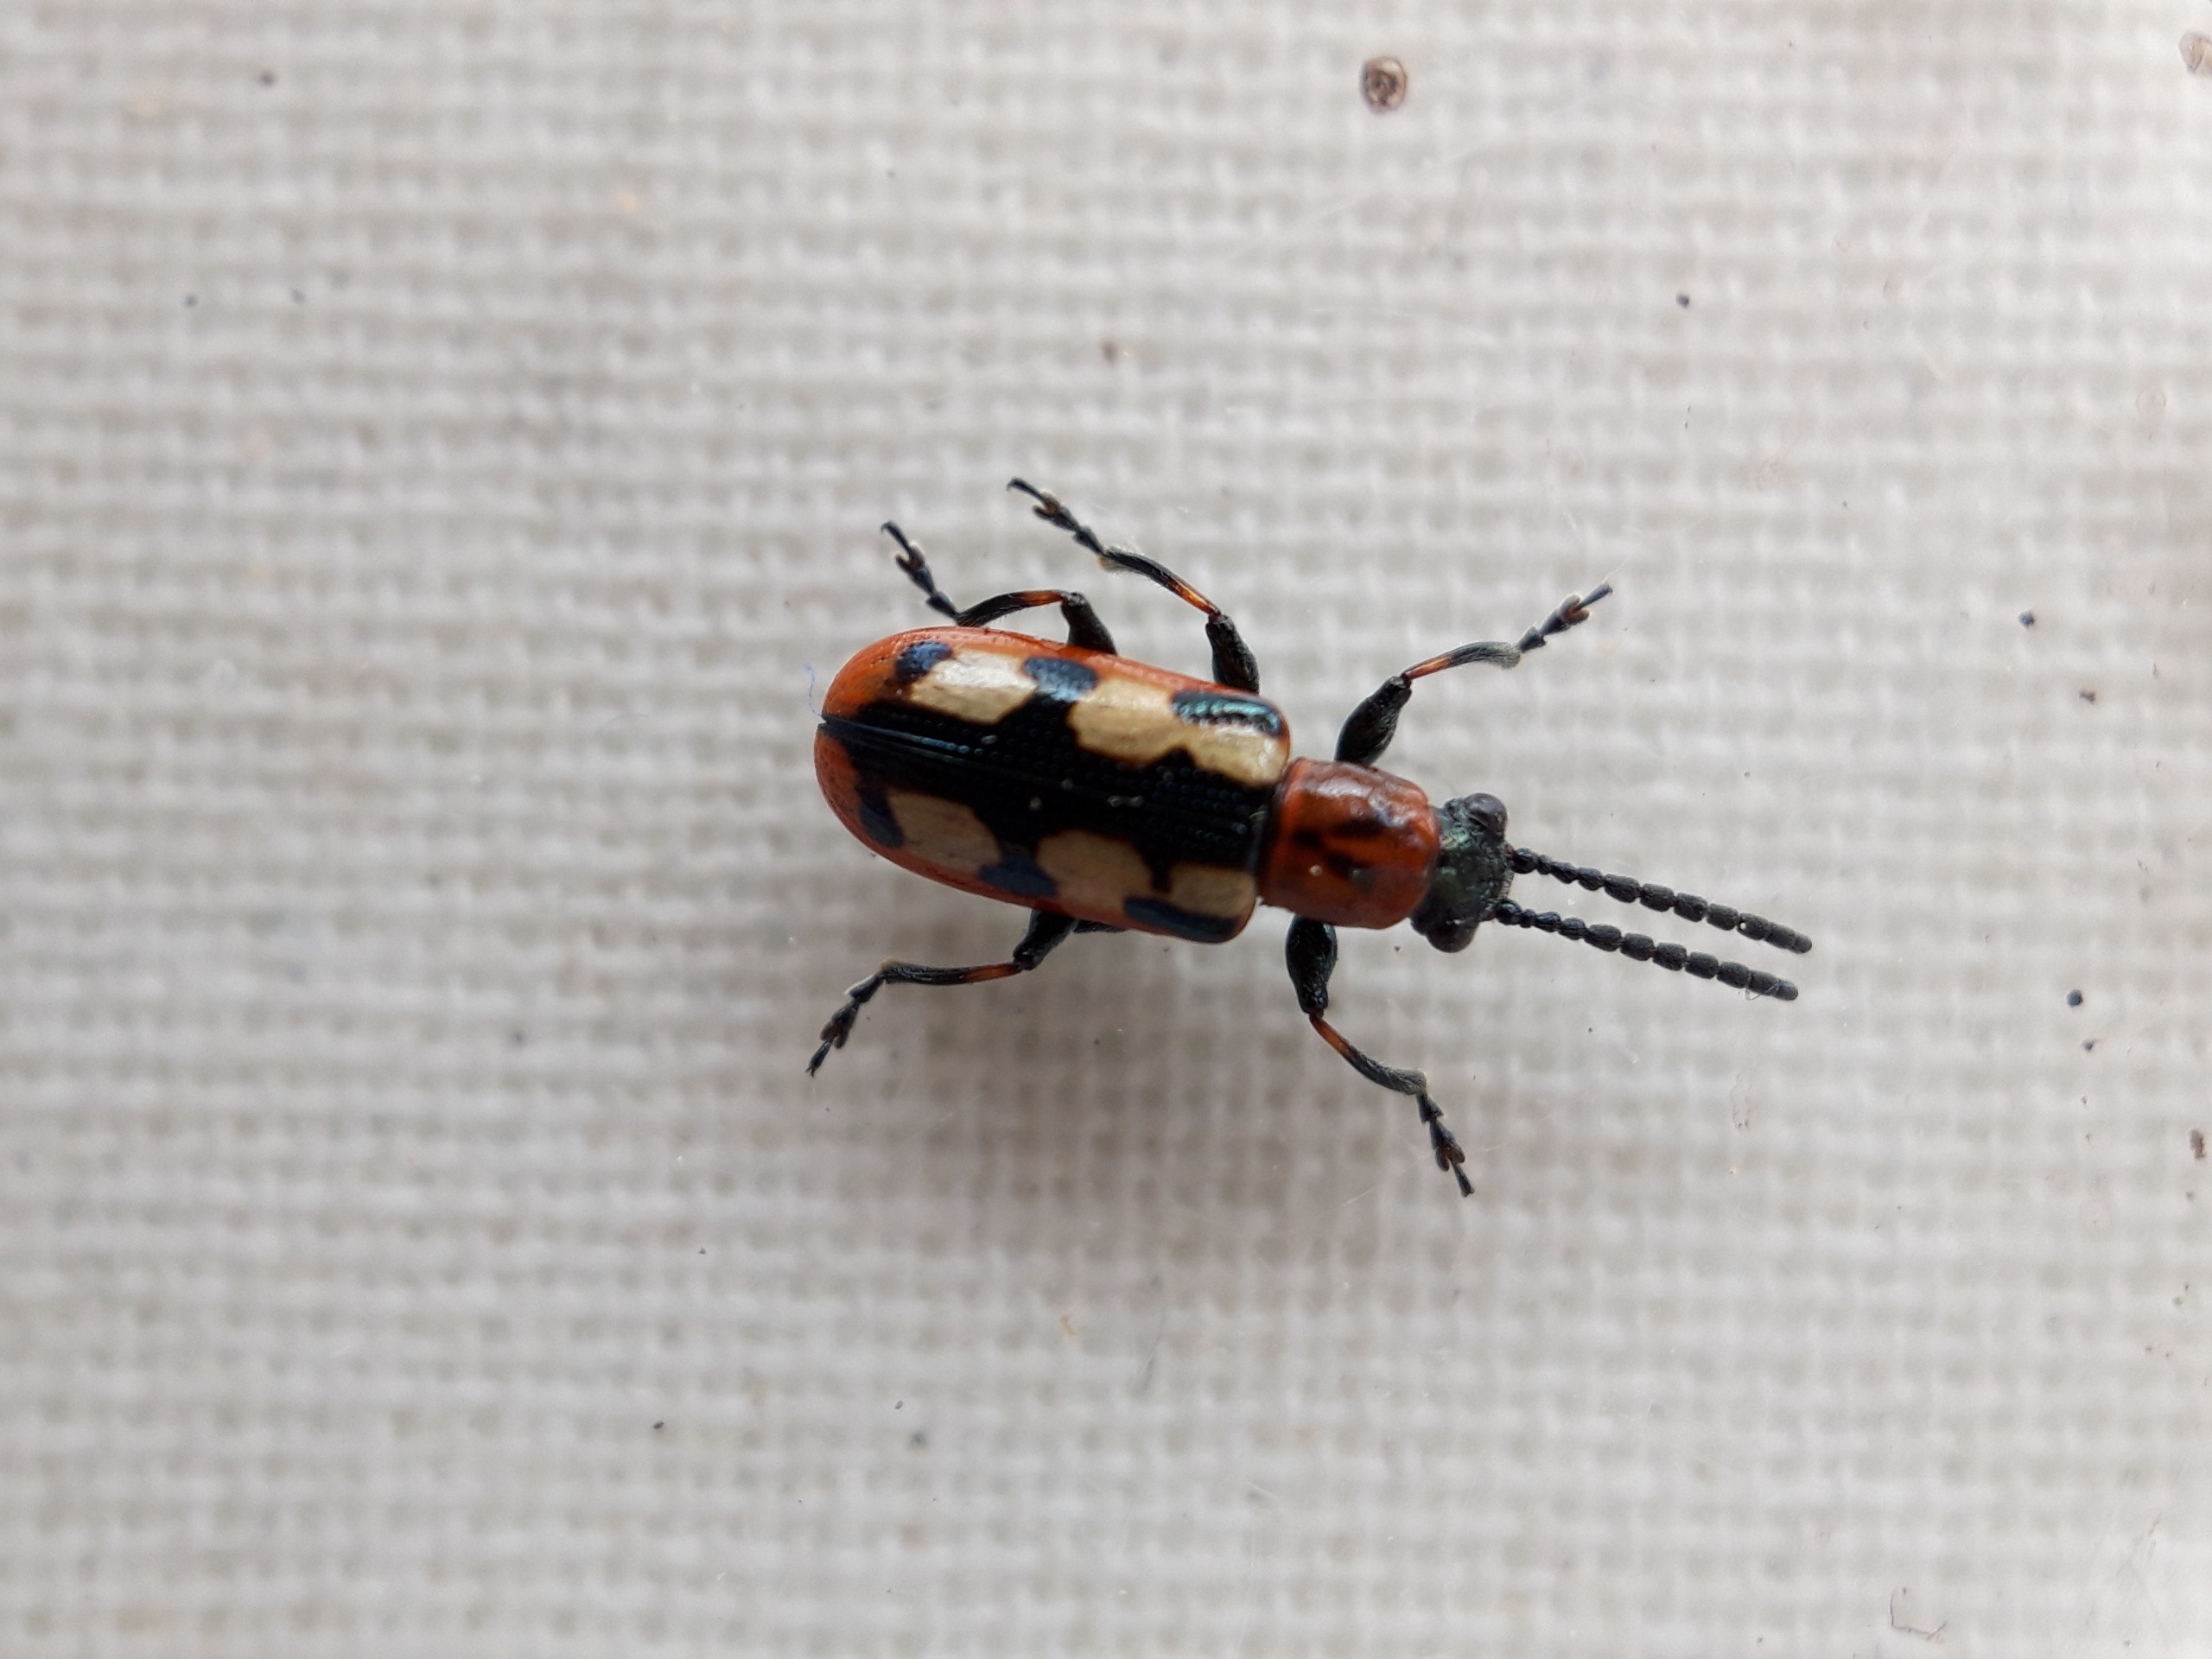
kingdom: Animalia
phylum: Arthropoda
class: Insecta
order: Coleoptera
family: Chrysomelidae
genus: Crioceris
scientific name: Crioceris asparagi
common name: Gulplettet aspargesbille
